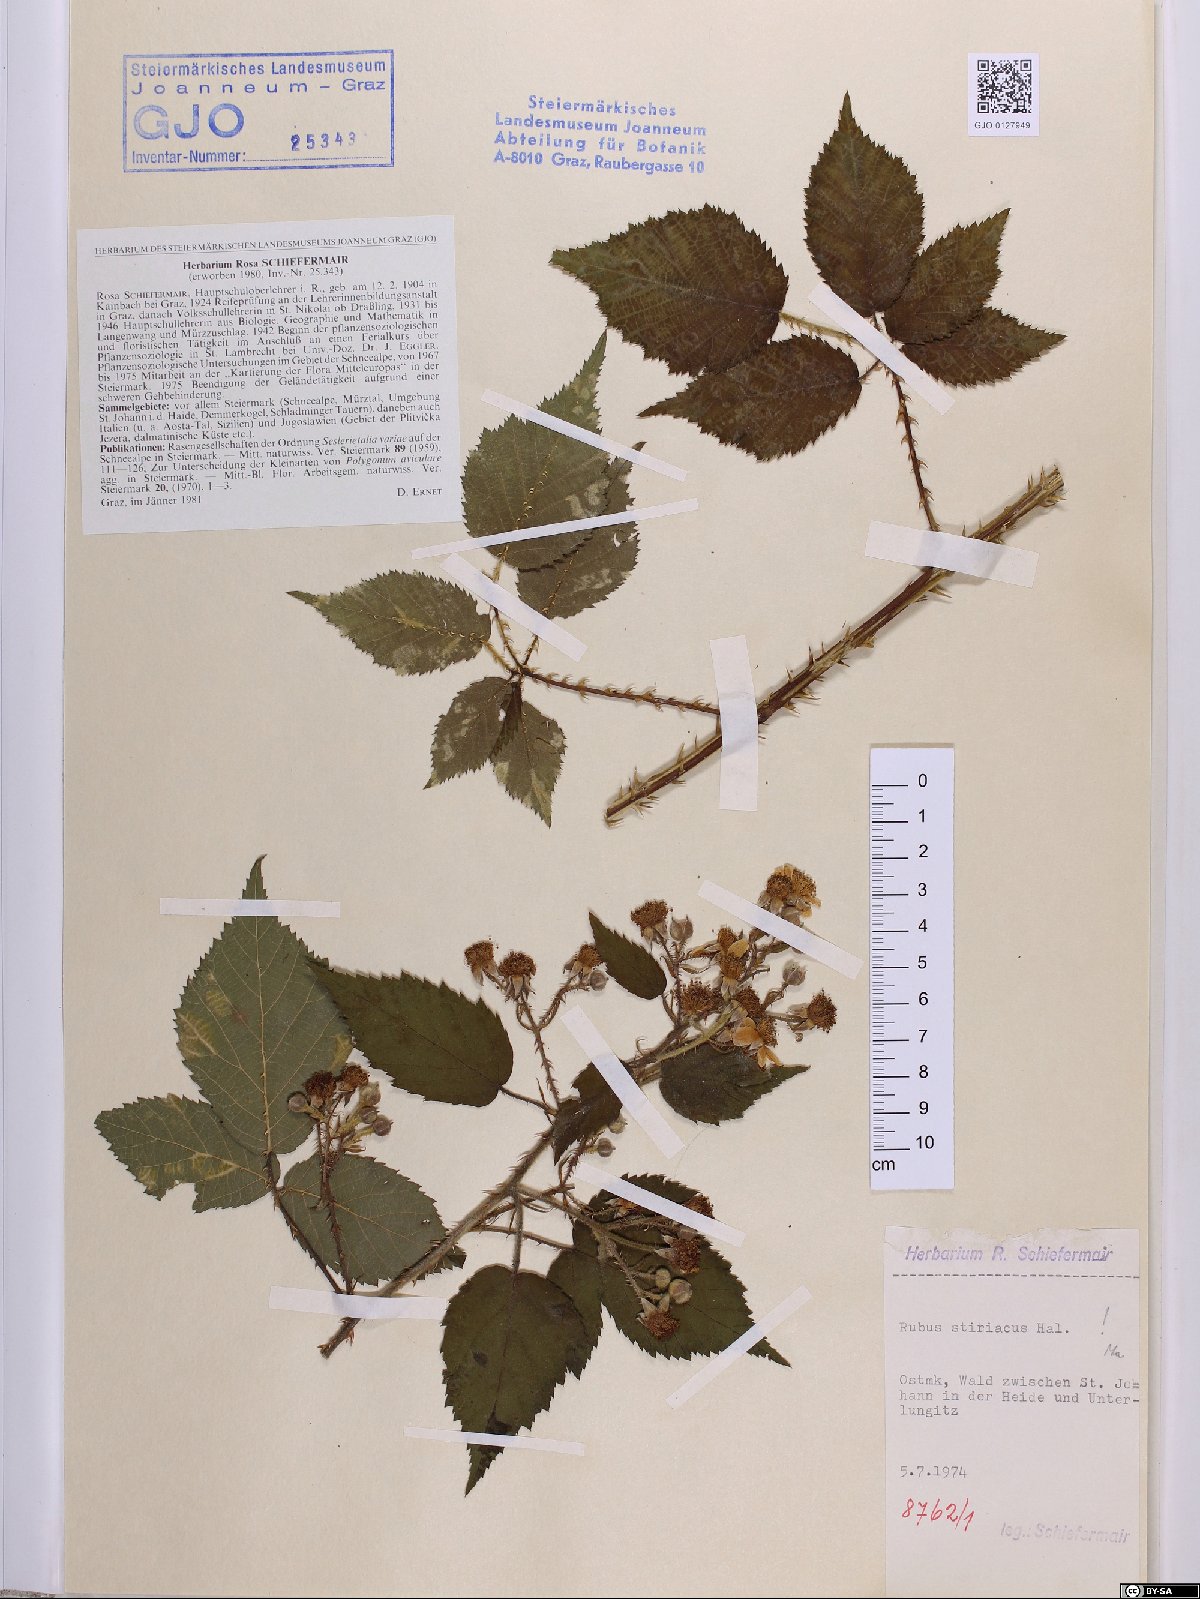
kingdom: Plantae
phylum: Tracheophyta
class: Magnoliopsida
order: Rosales
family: Rosaceae
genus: Rubus
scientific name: Rubus styriacus
